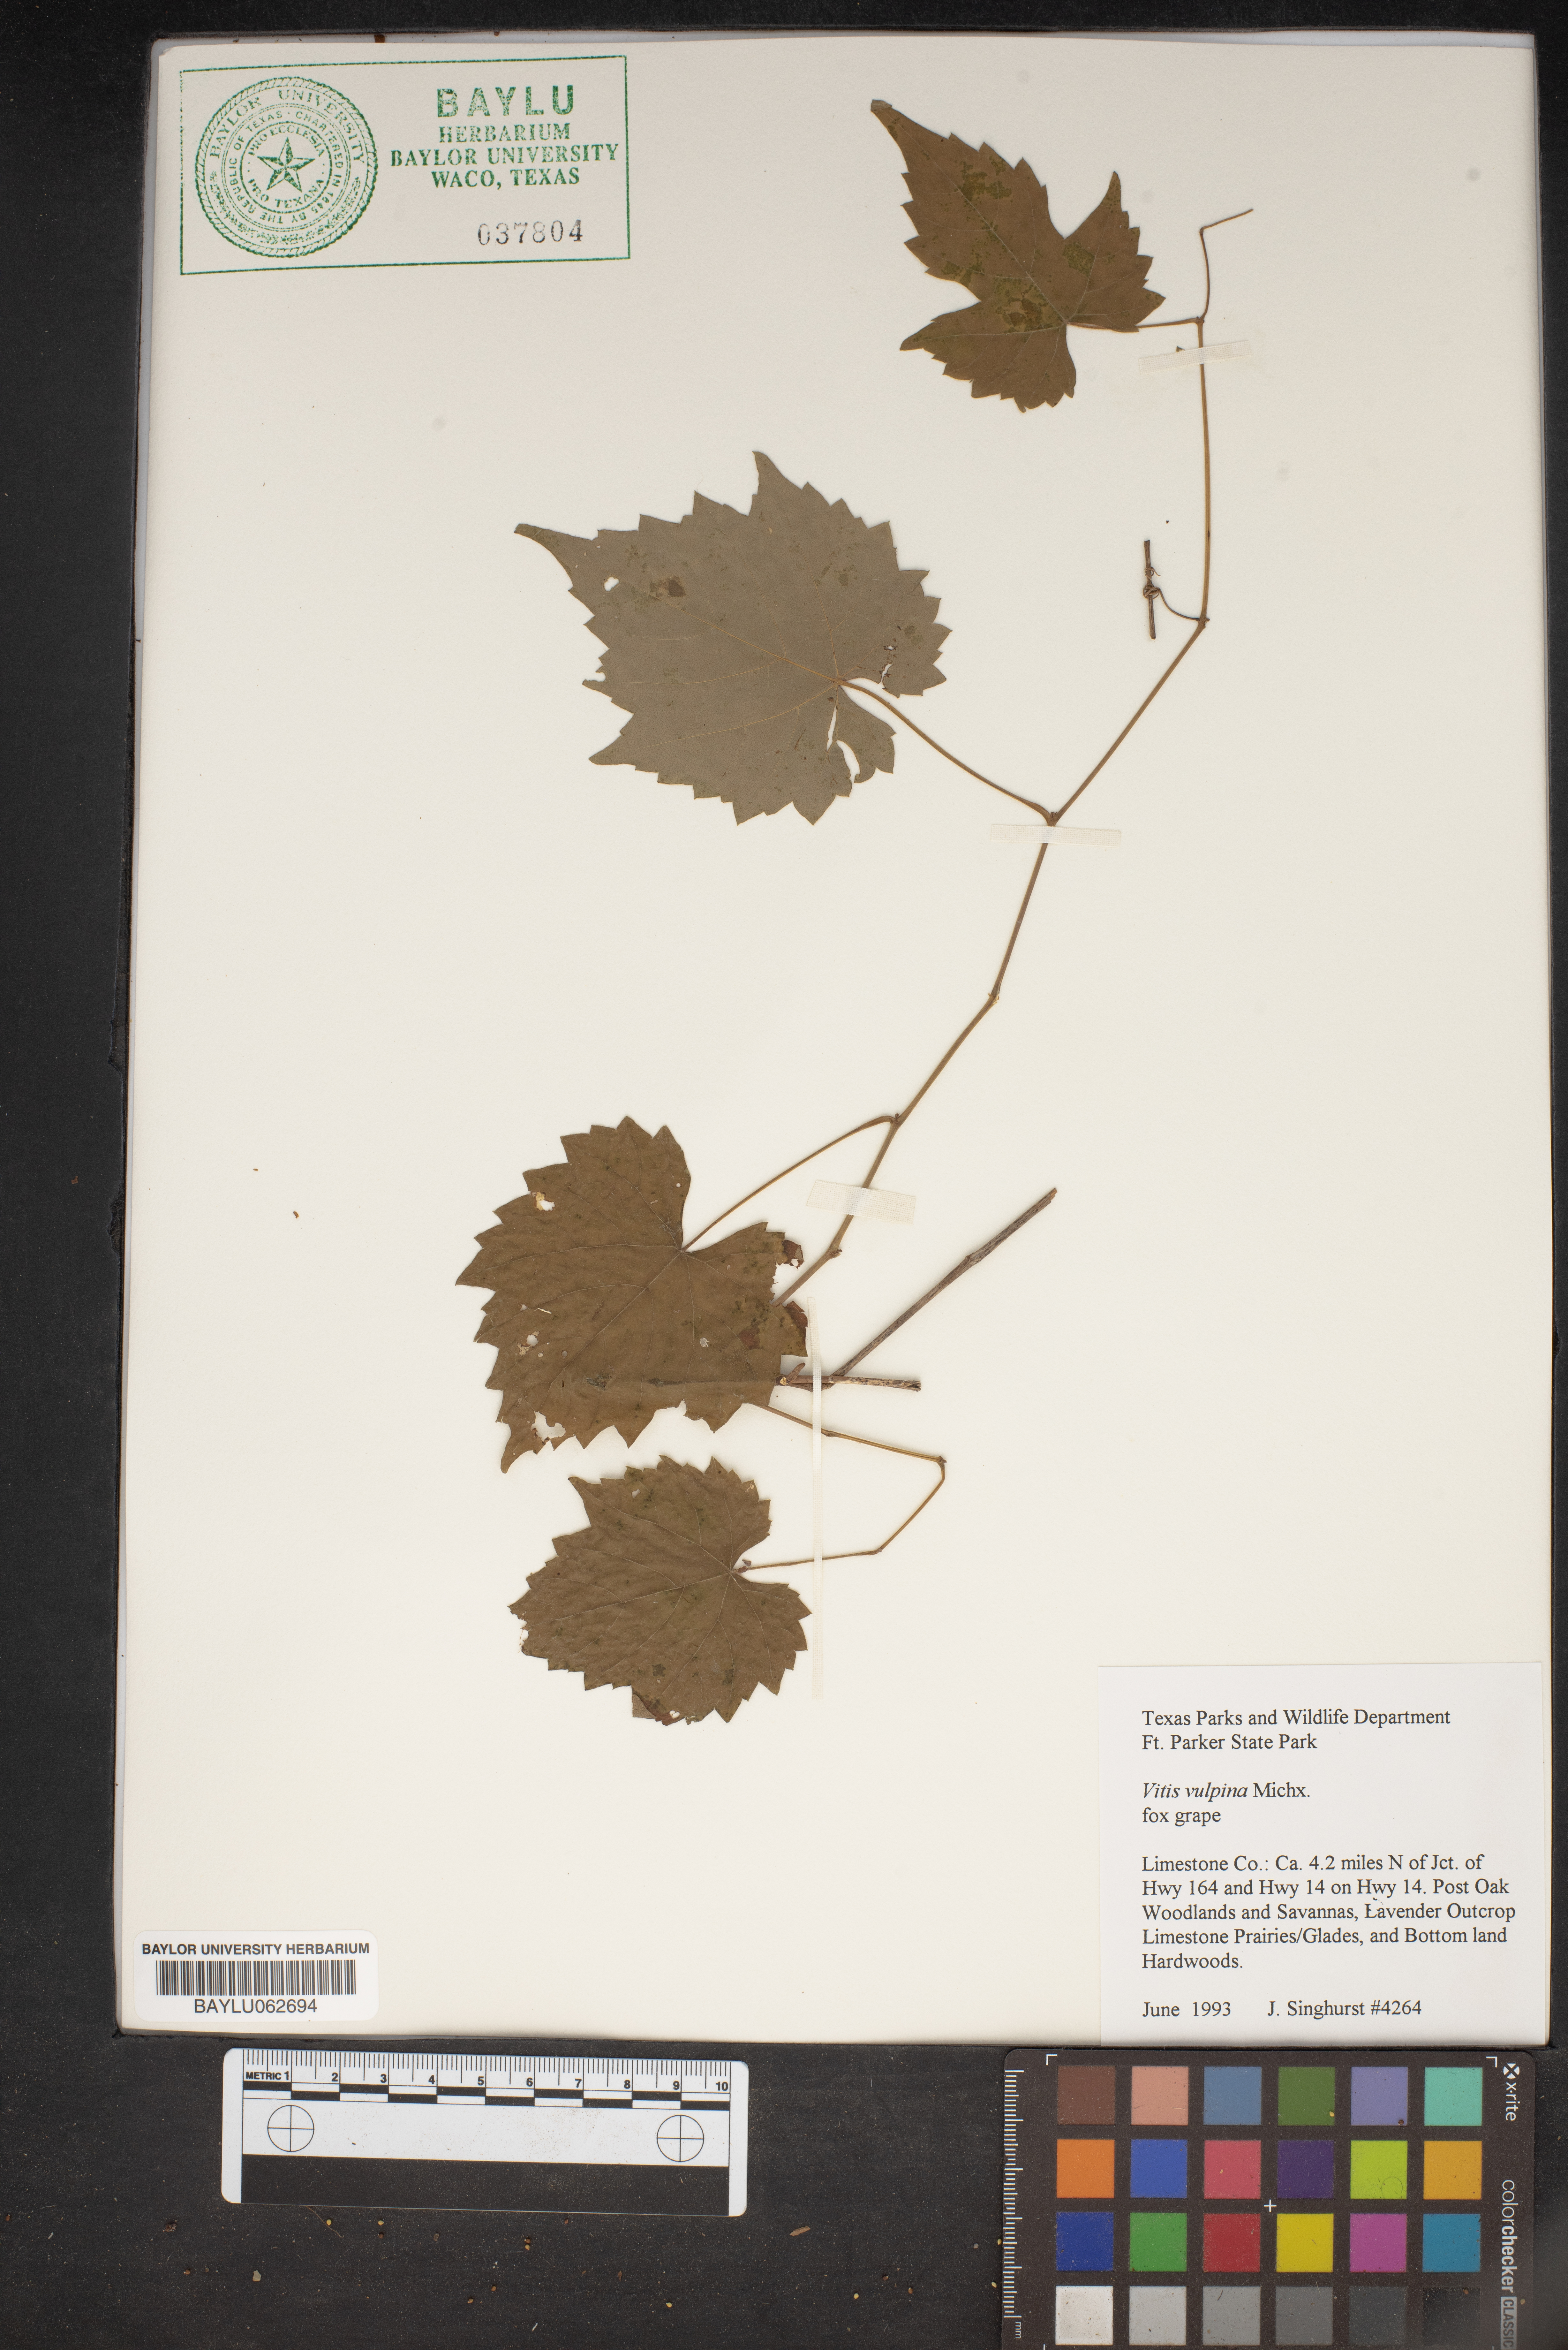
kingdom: Plantae
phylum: Tracheophyta
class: Magnoliopsida
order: Vitales
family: Vitaceae
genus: Vitis
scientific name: Vitis vulpina
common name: Frost grape
